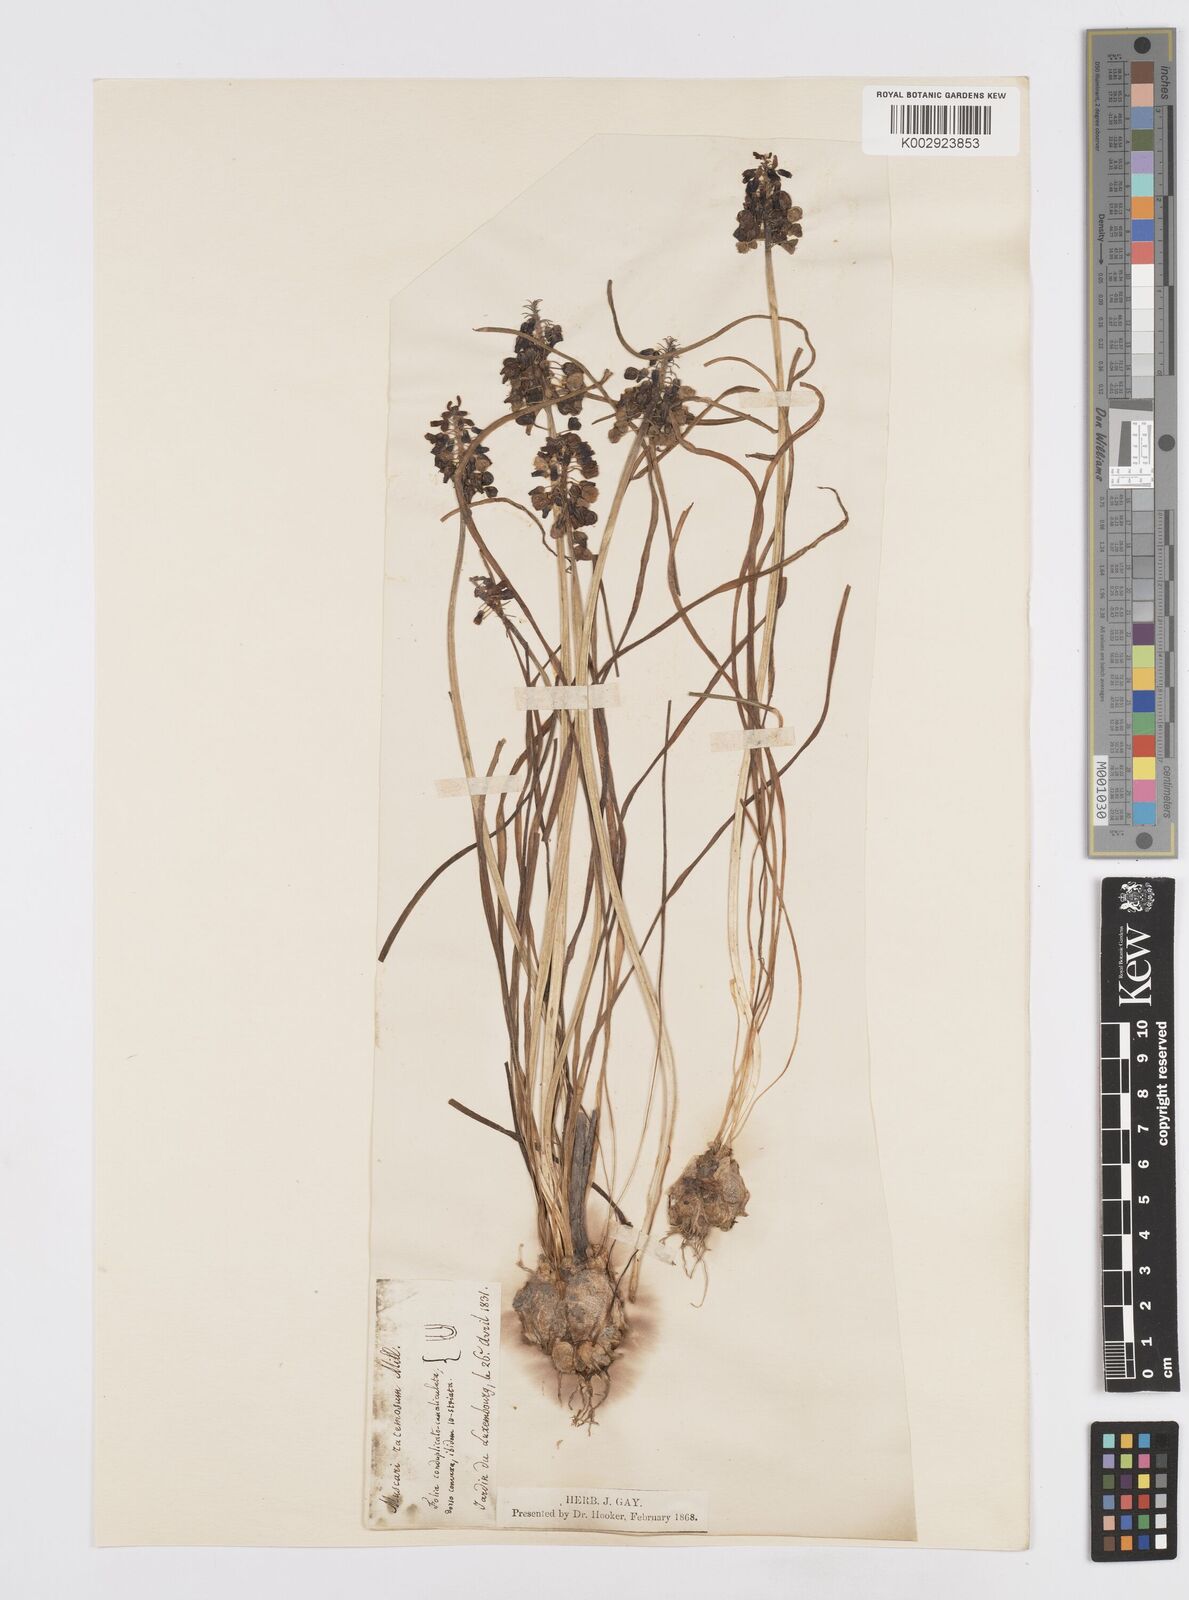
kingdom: Plantae
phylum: Tracheophyta
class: Liliopsida
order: Asparagales
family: Asparagaceae
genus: Muscari
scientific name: Muscari neglectum
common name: Grape-hyacinth
